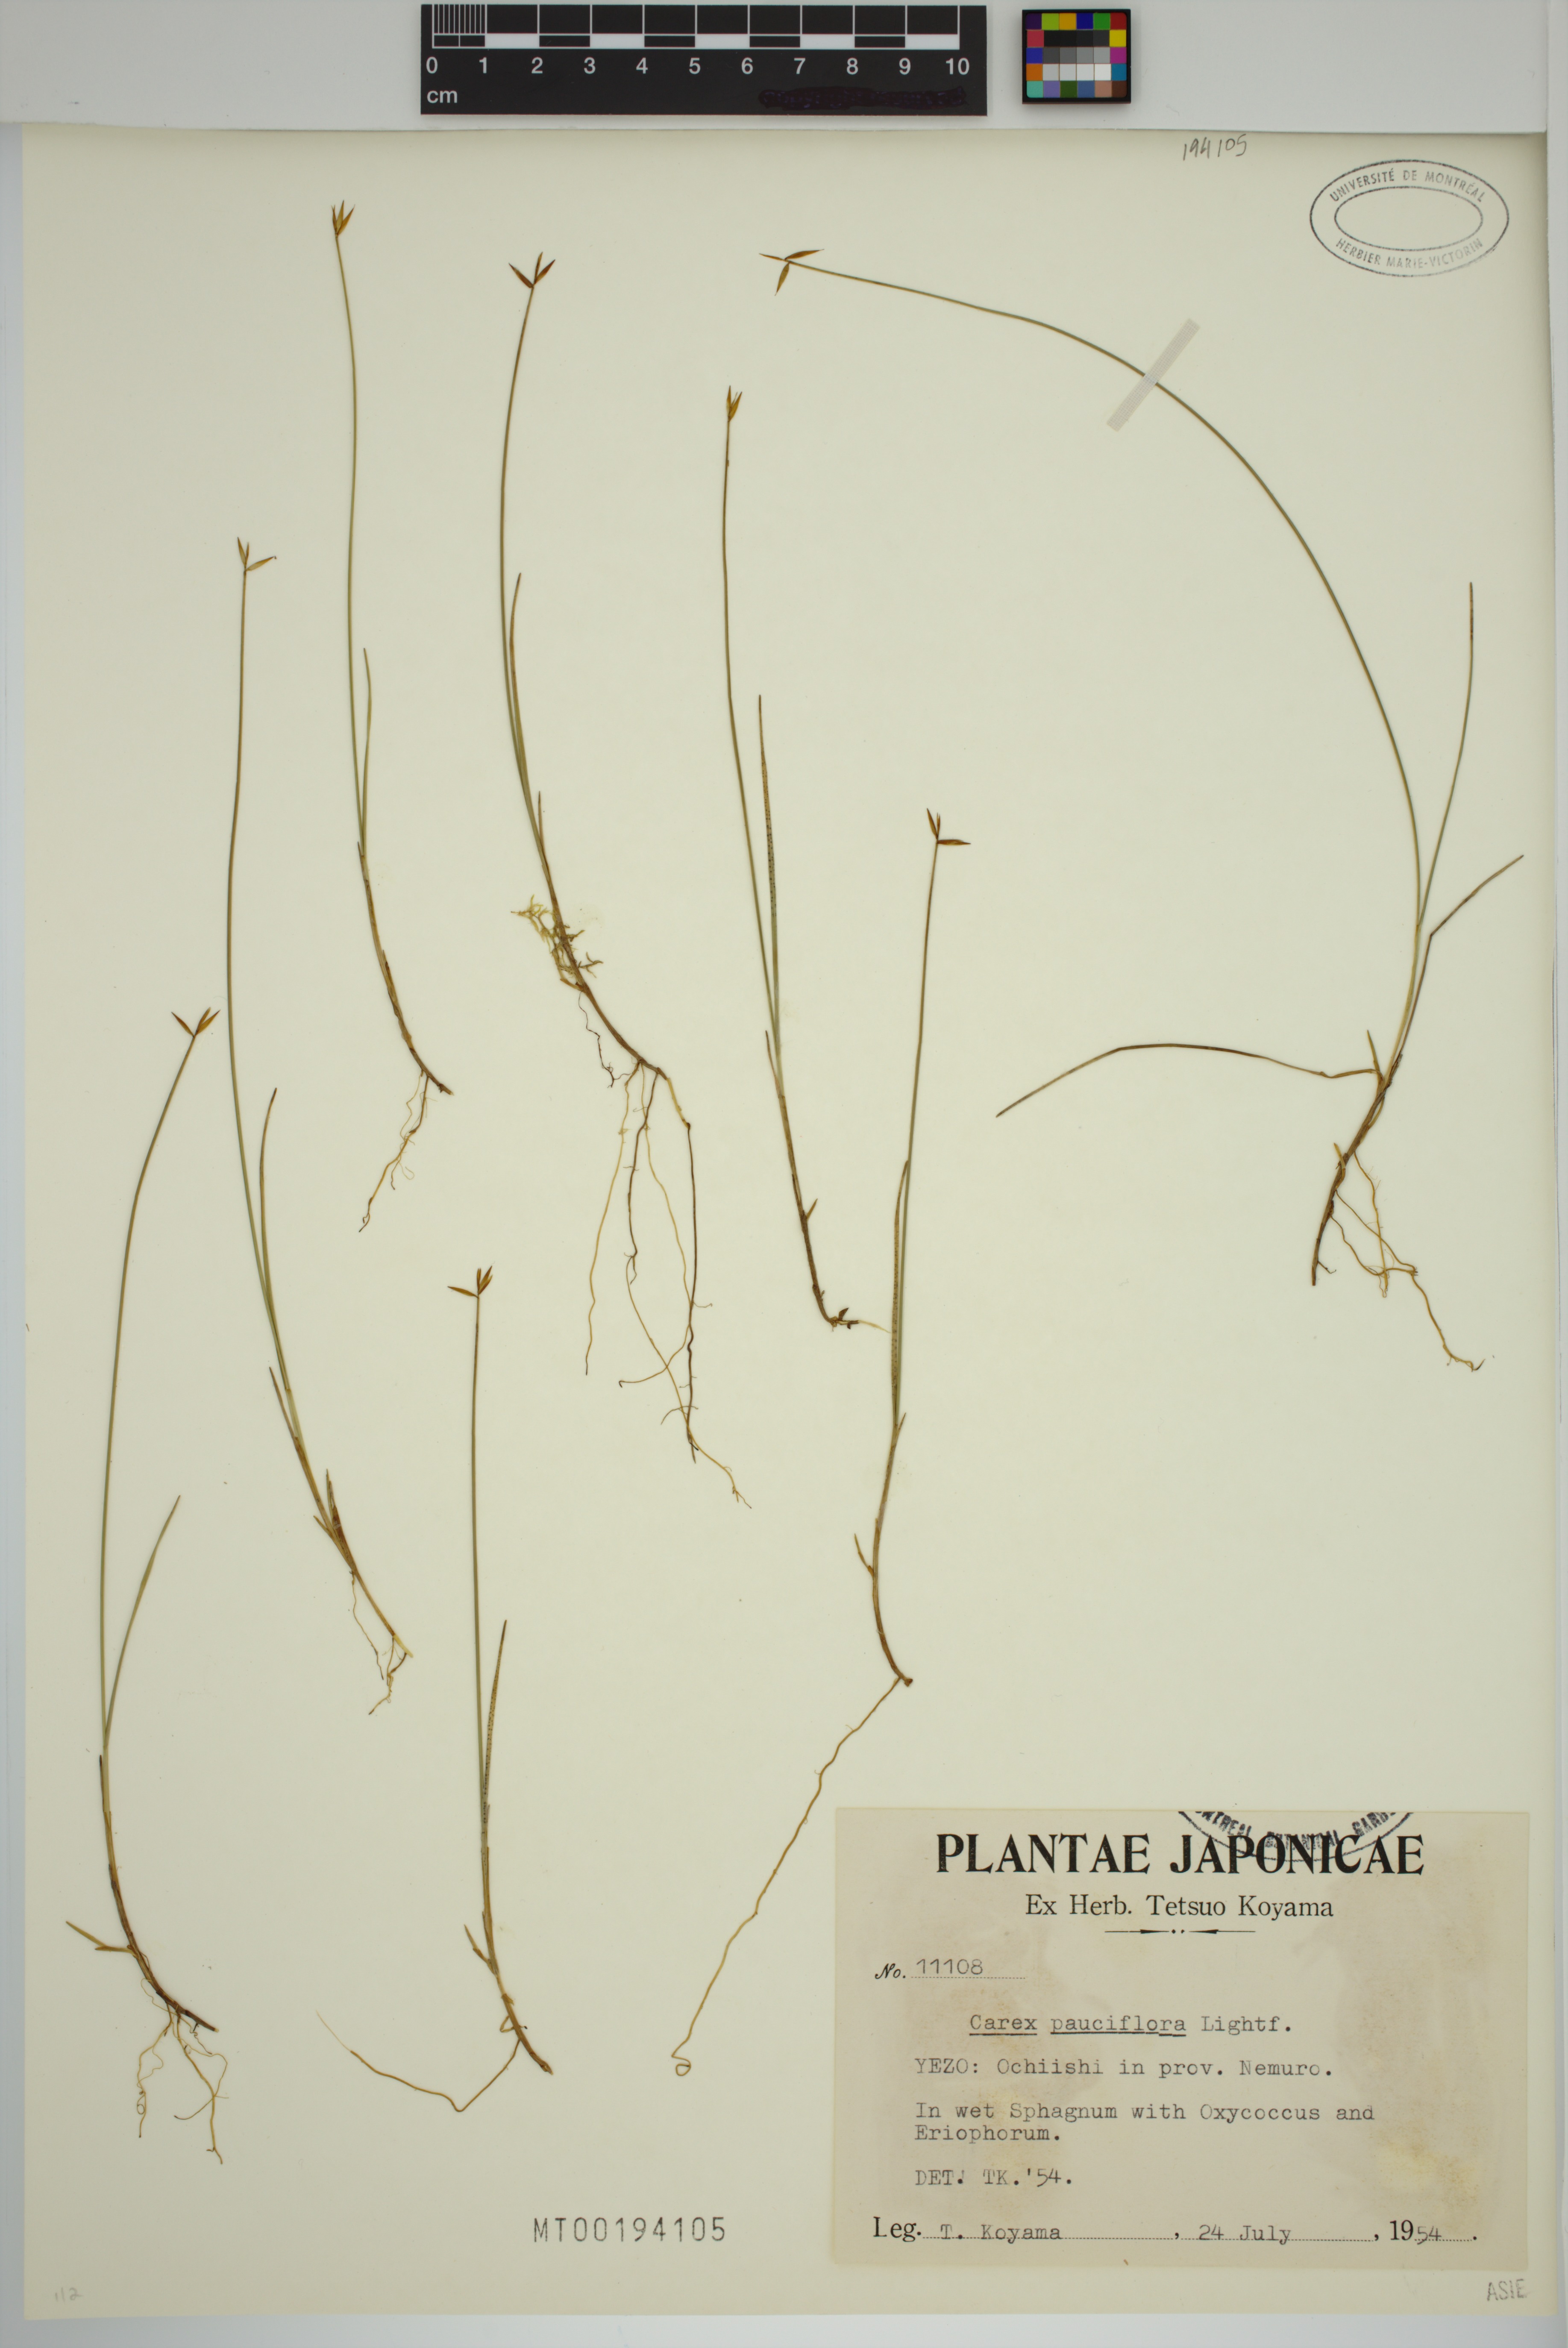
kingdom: Plantae
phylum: Tracheophyta
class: Liliopsida
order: Poales
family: Cyperaceae
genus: Carex
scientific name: Carex pauciflora
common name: Few-flowered sedge
